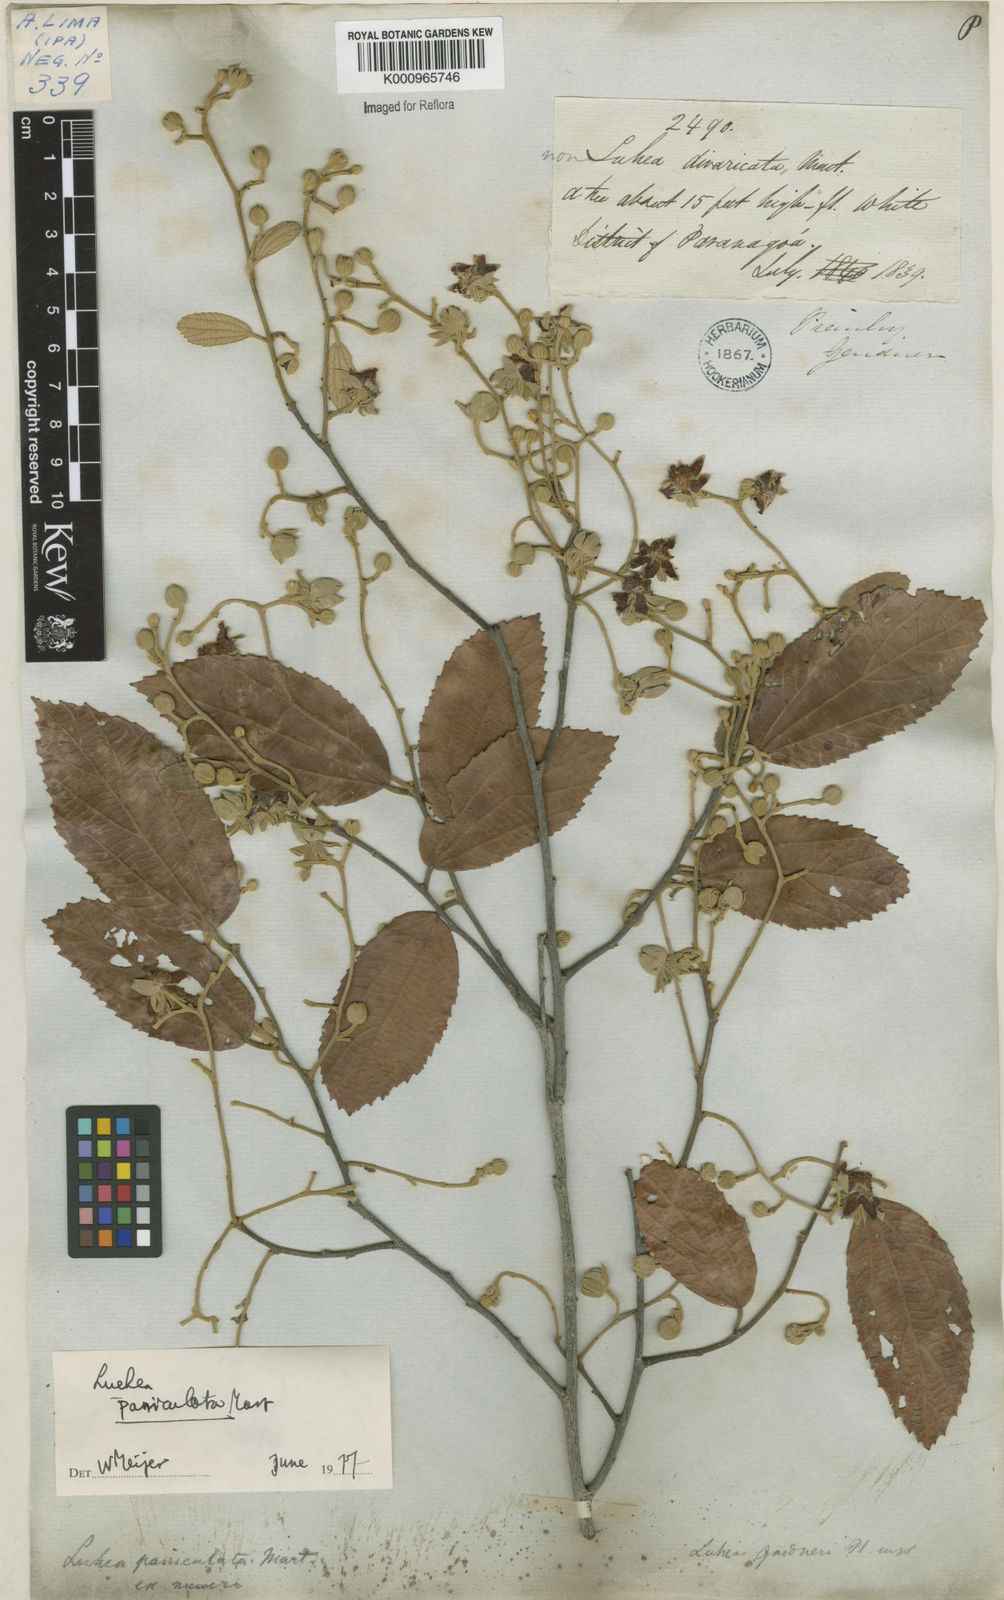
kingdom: Plantae
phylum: Tracheophyta
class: Magnoliopsida
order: Malvales
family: Malvaceae
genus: Luehea
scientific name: Luehea paniculata
